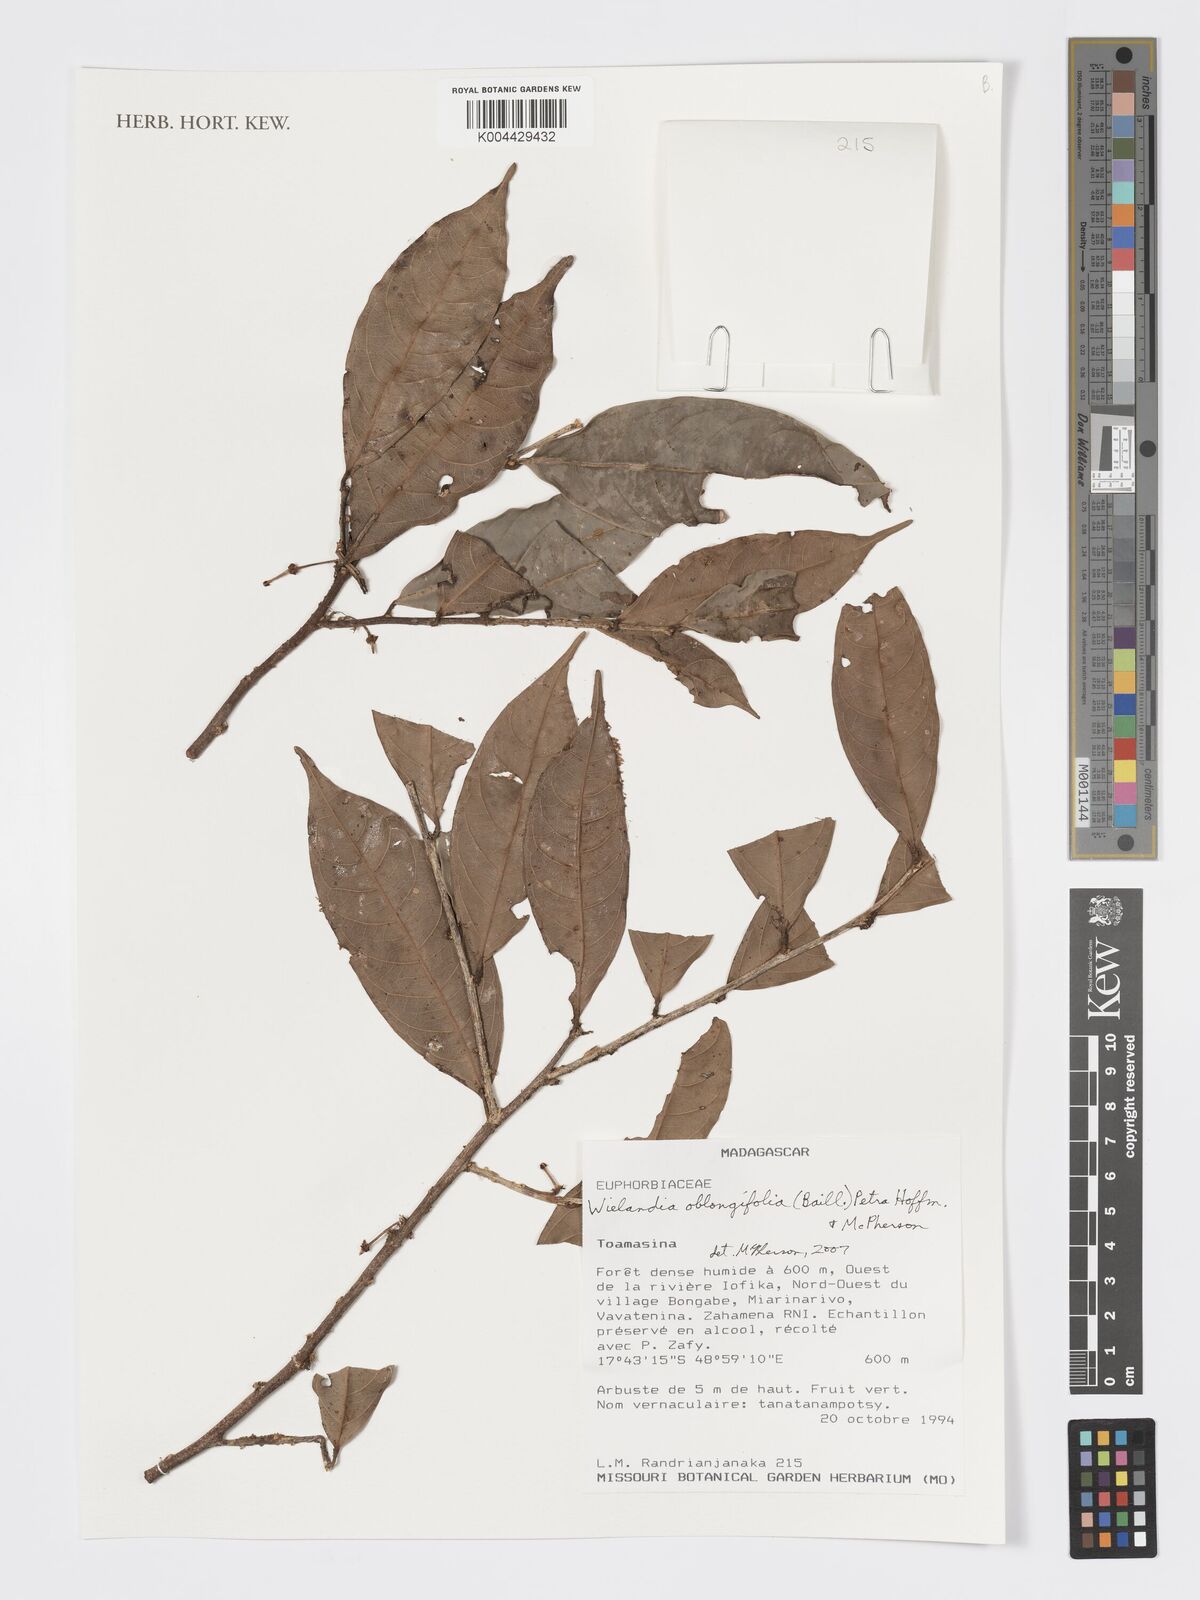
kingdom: Plantae
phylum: Tracheophyta
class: Magnoliopsida
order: Malpighiales
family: Phyllanthaceae
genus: Wielandia
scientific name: Wielandia oblongifolia
